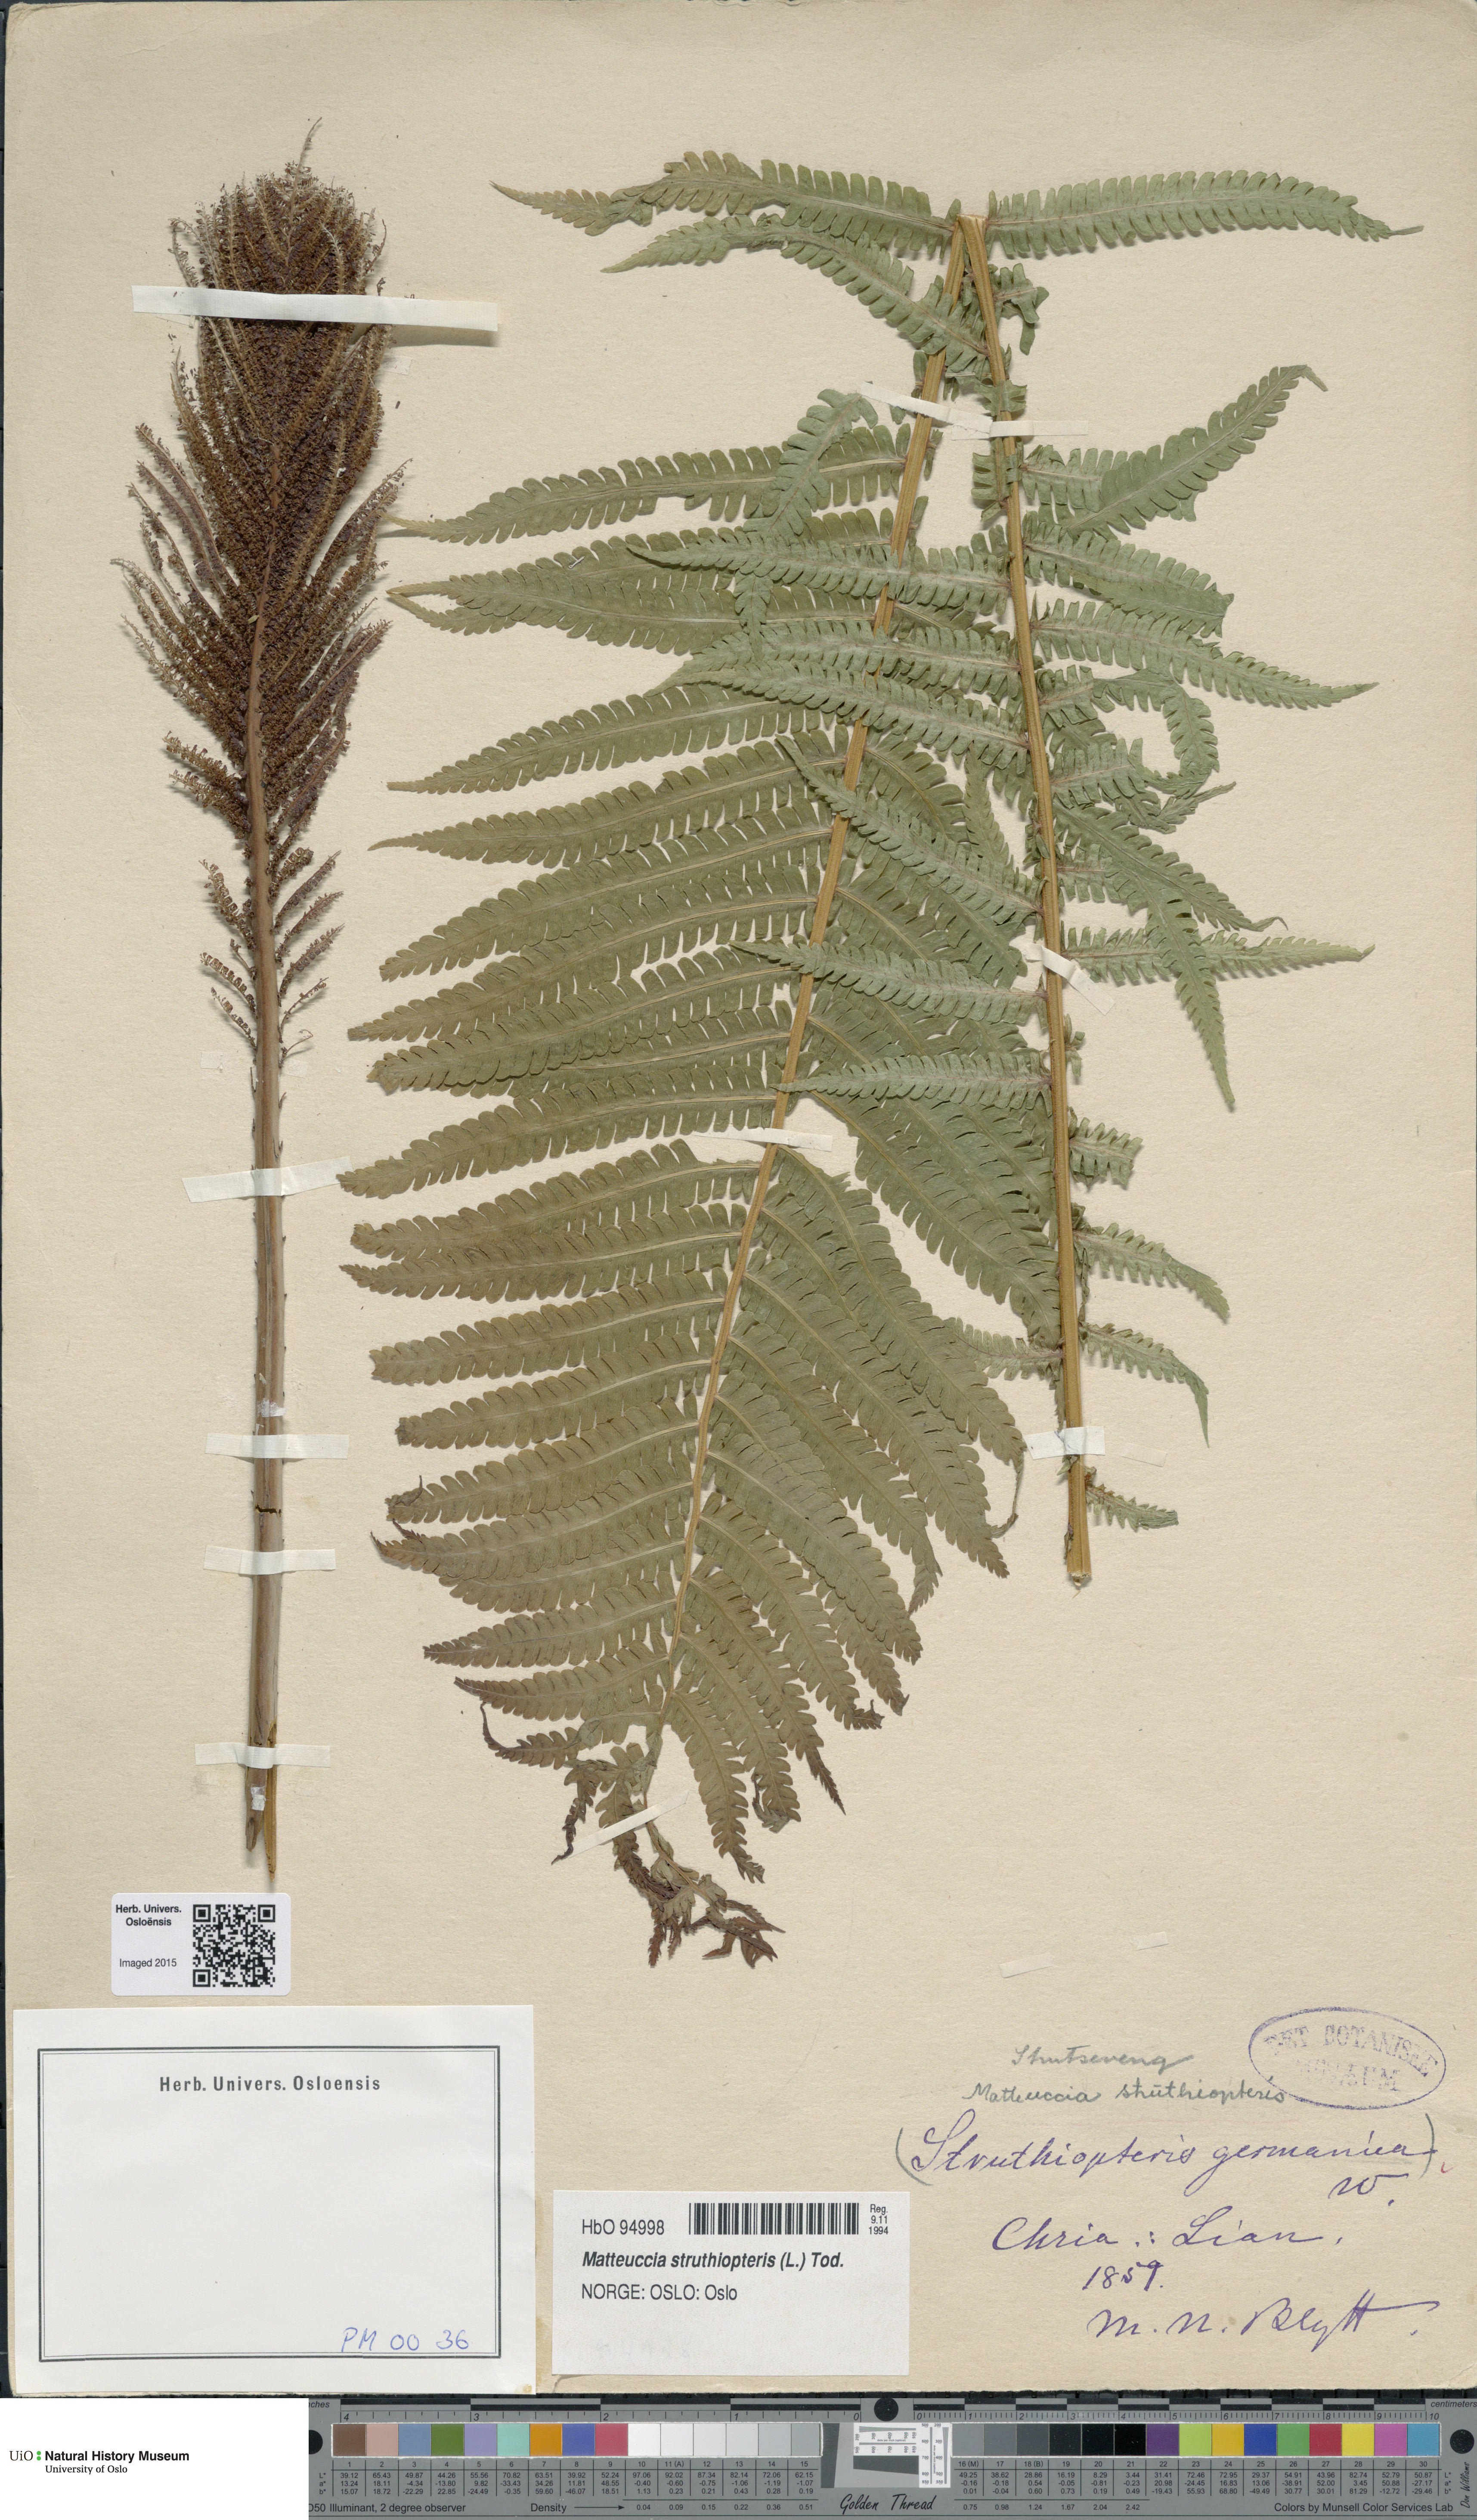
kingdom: Plantae
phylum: Tracheophyta
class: Polypodiopsida
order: Polypodiales
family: Onocleaceae
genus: Matteuccia
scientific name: Matteuccia struthiopteris
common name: Ostrich fern
